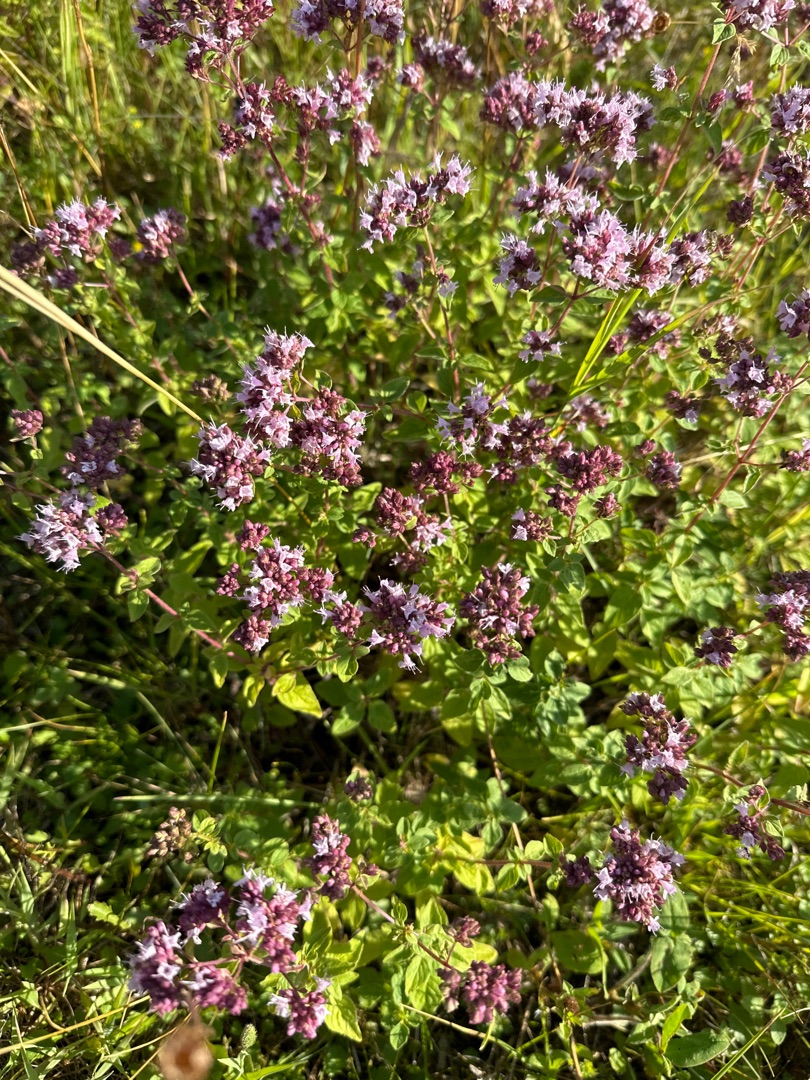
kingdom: Plantae
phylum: Tracheophyta
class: Magnoliopsida
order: Lamiales
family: Lamiaceae
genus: Origanum
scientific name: Origanum vulgare
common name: Merian
